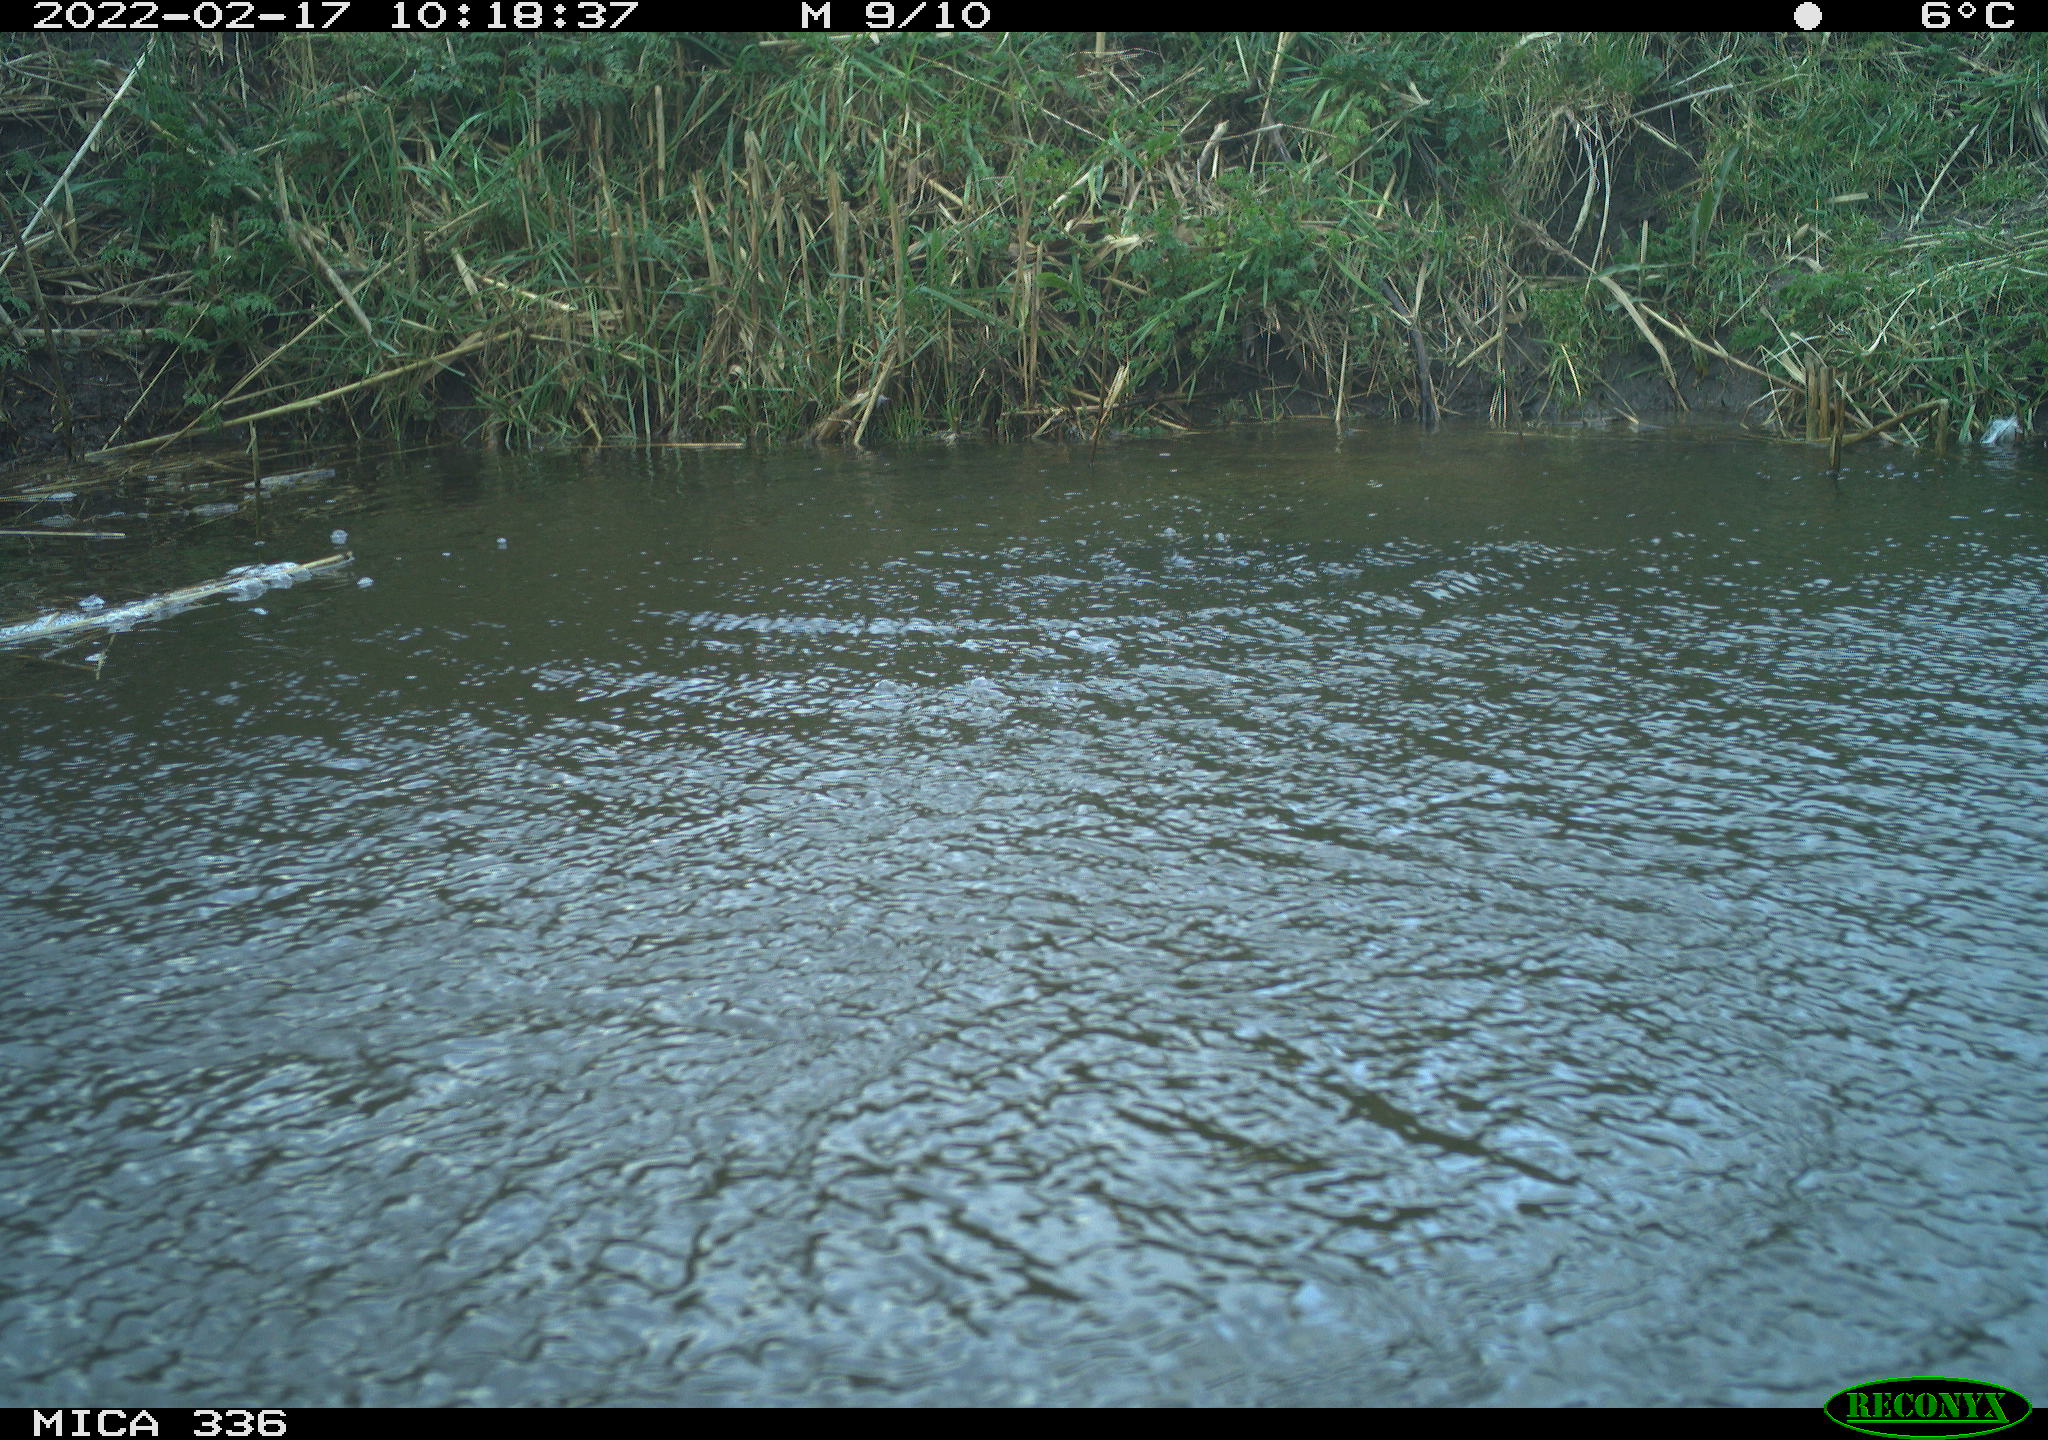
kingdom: Animalia
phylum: Chordata
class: Aves
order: Suliformes
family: Phalacrocoracidae
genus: Phalacrocorax
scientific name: Phalacrocorax carbo
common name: Great cormorant
